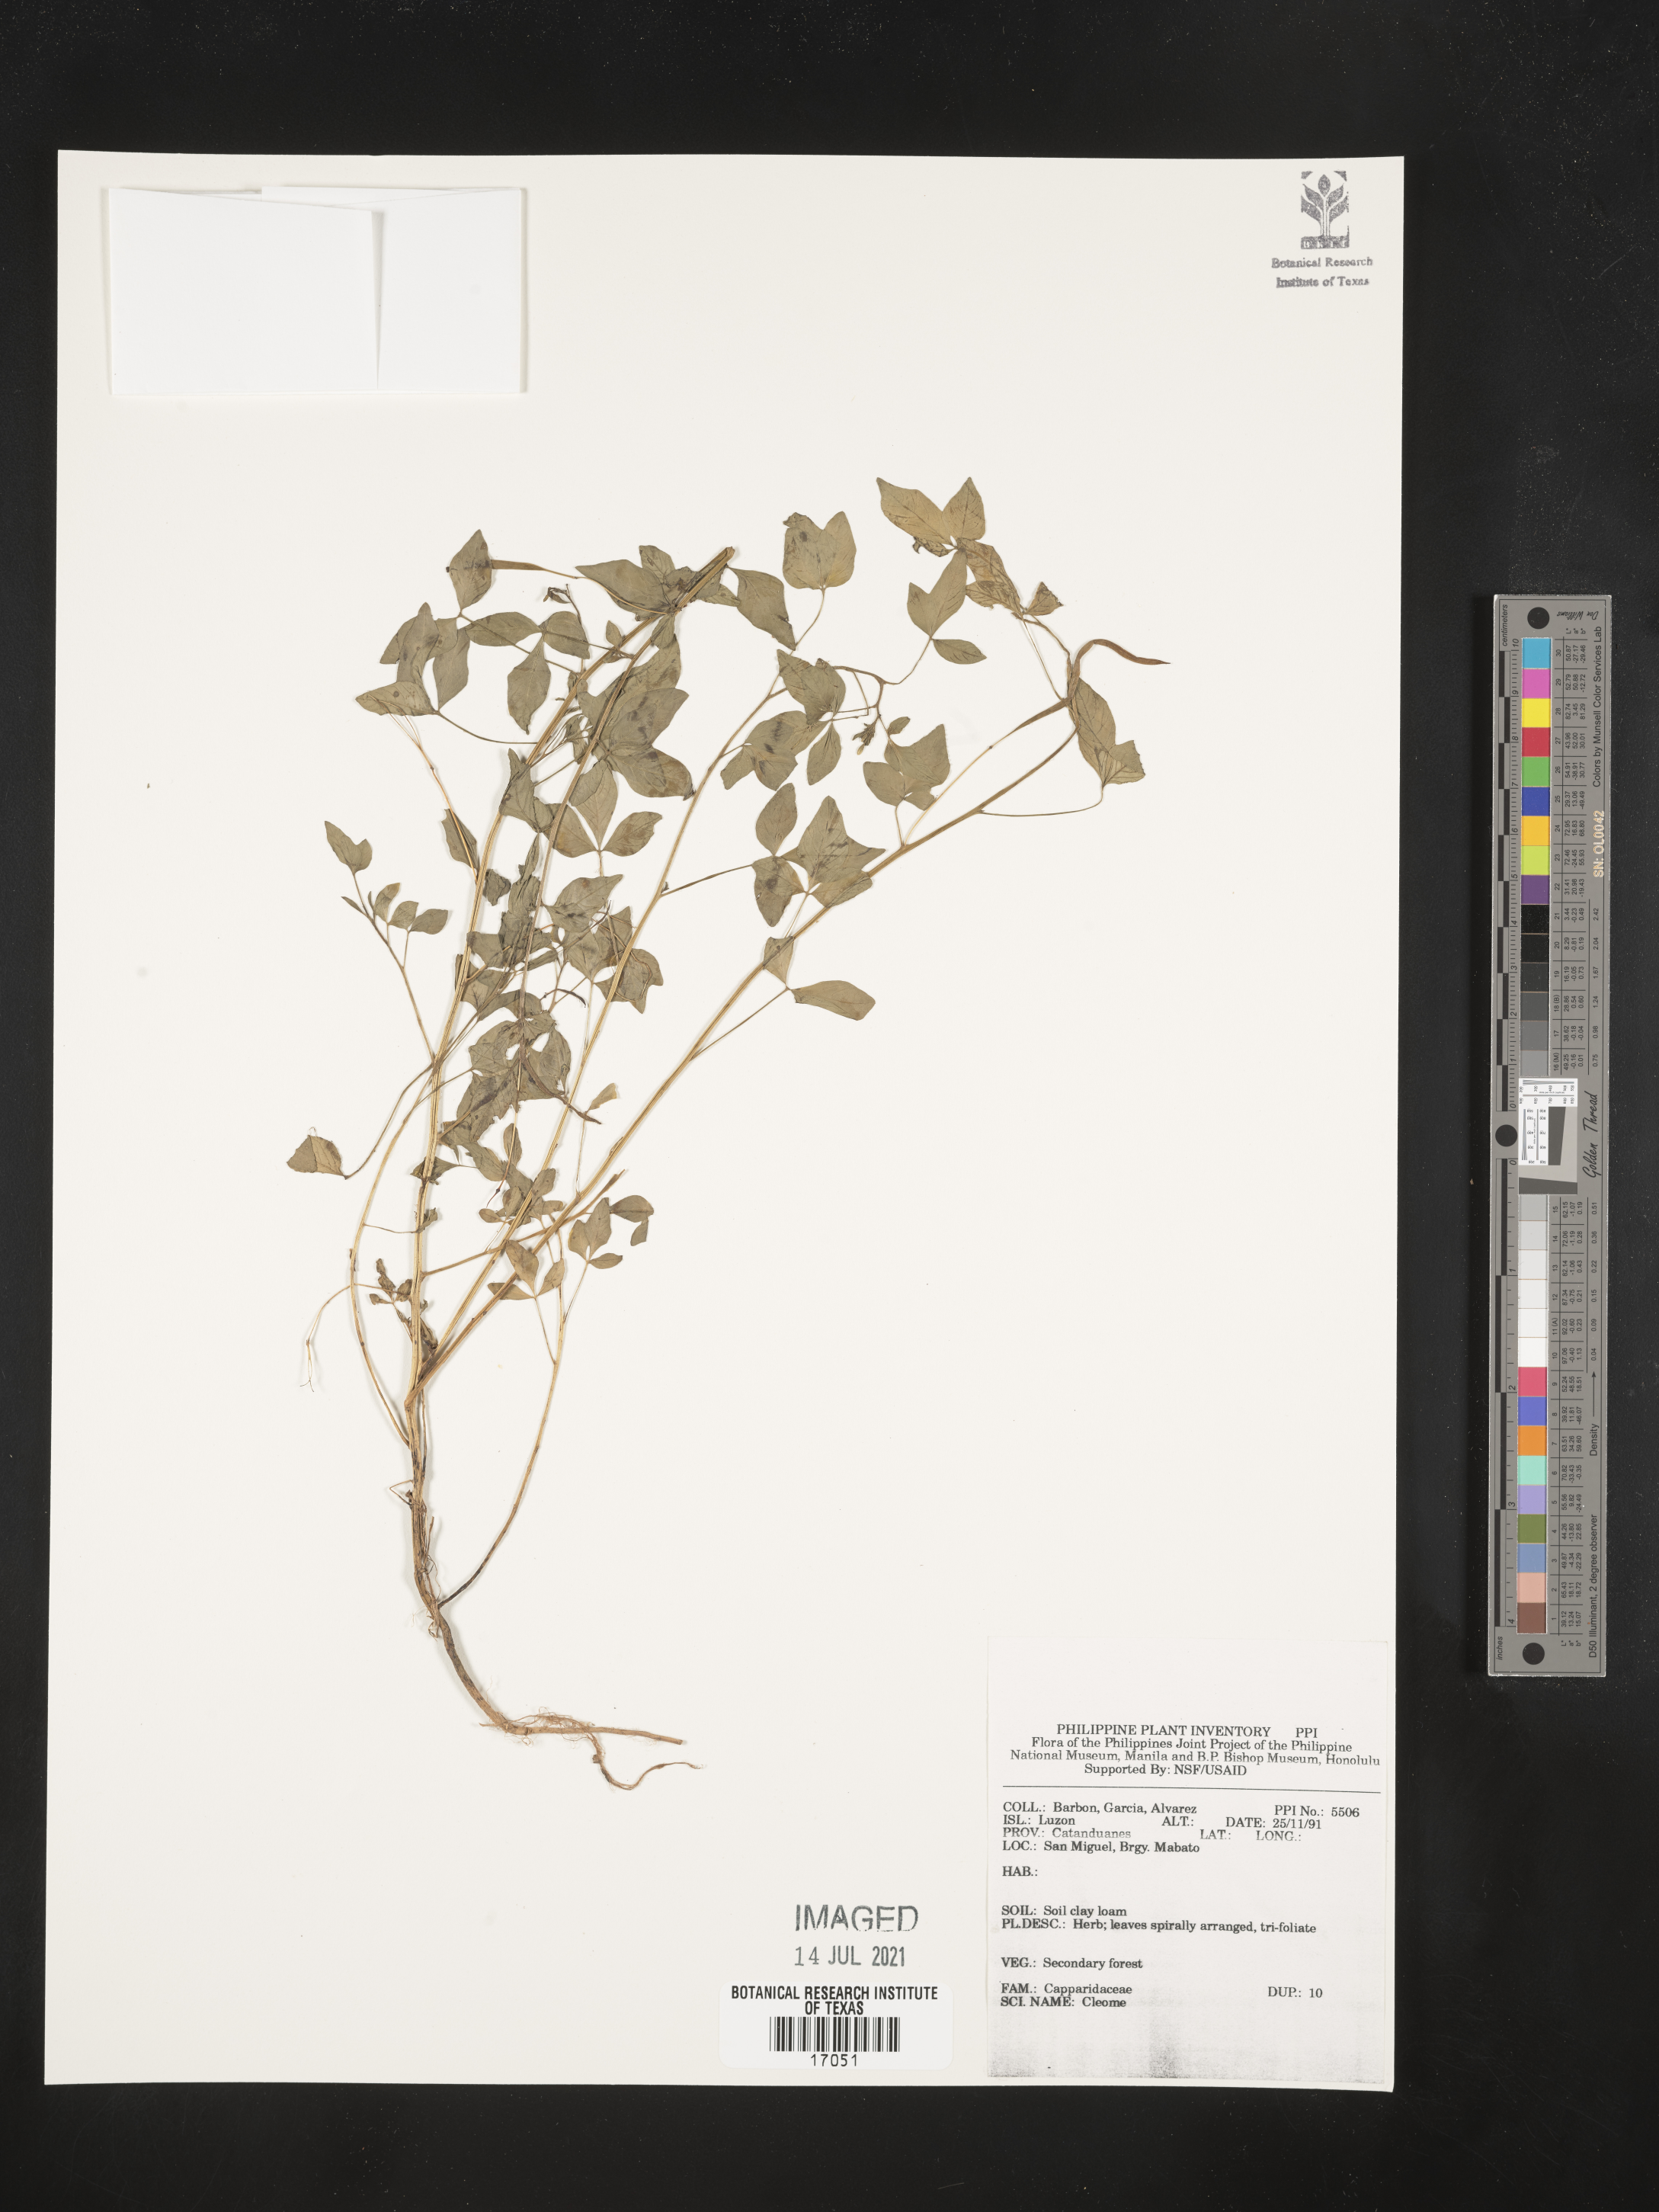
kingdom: Plantae
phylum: Tracheophyta
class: Magnoliopsida
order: Brassicales
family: Cleomaceae
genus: Cleome
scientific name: Cleome
